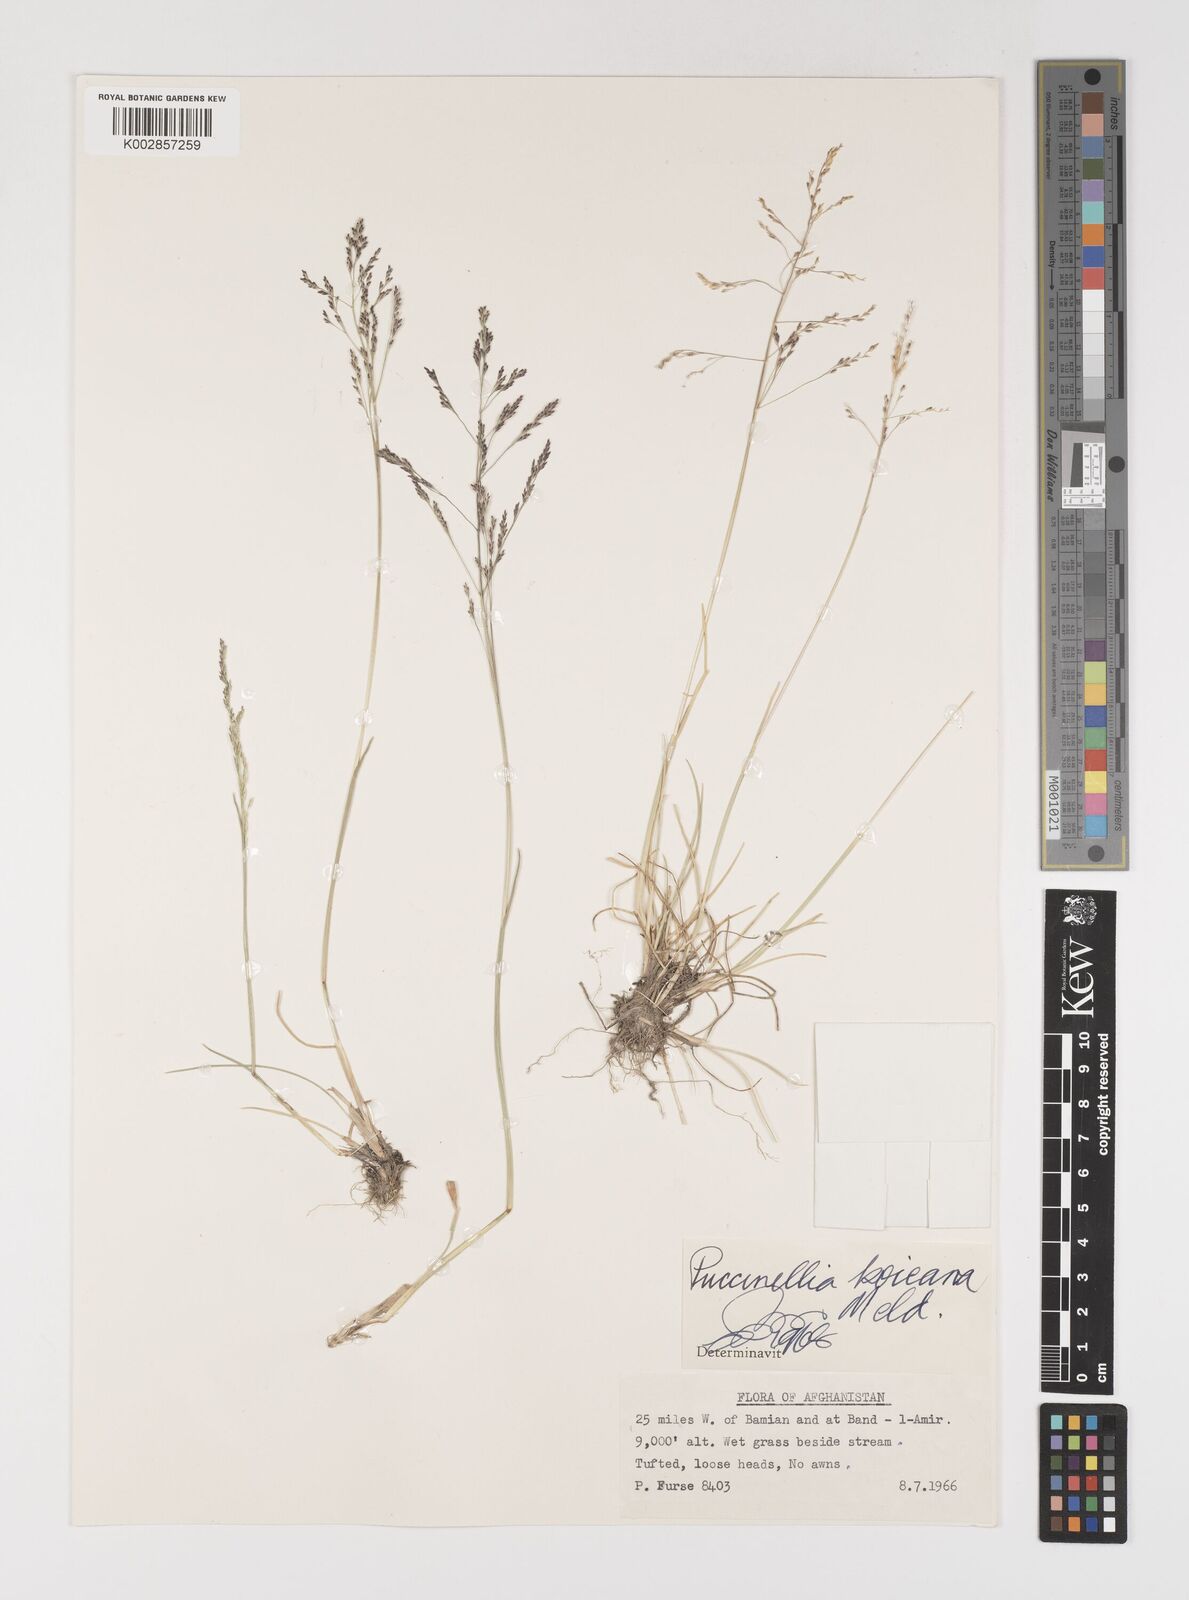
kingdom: Plantae
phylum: Tracheophyta
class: Liliopsida
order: Poales
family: Poaceae
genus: Puccinellia
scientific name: Puccinellia koeieana
